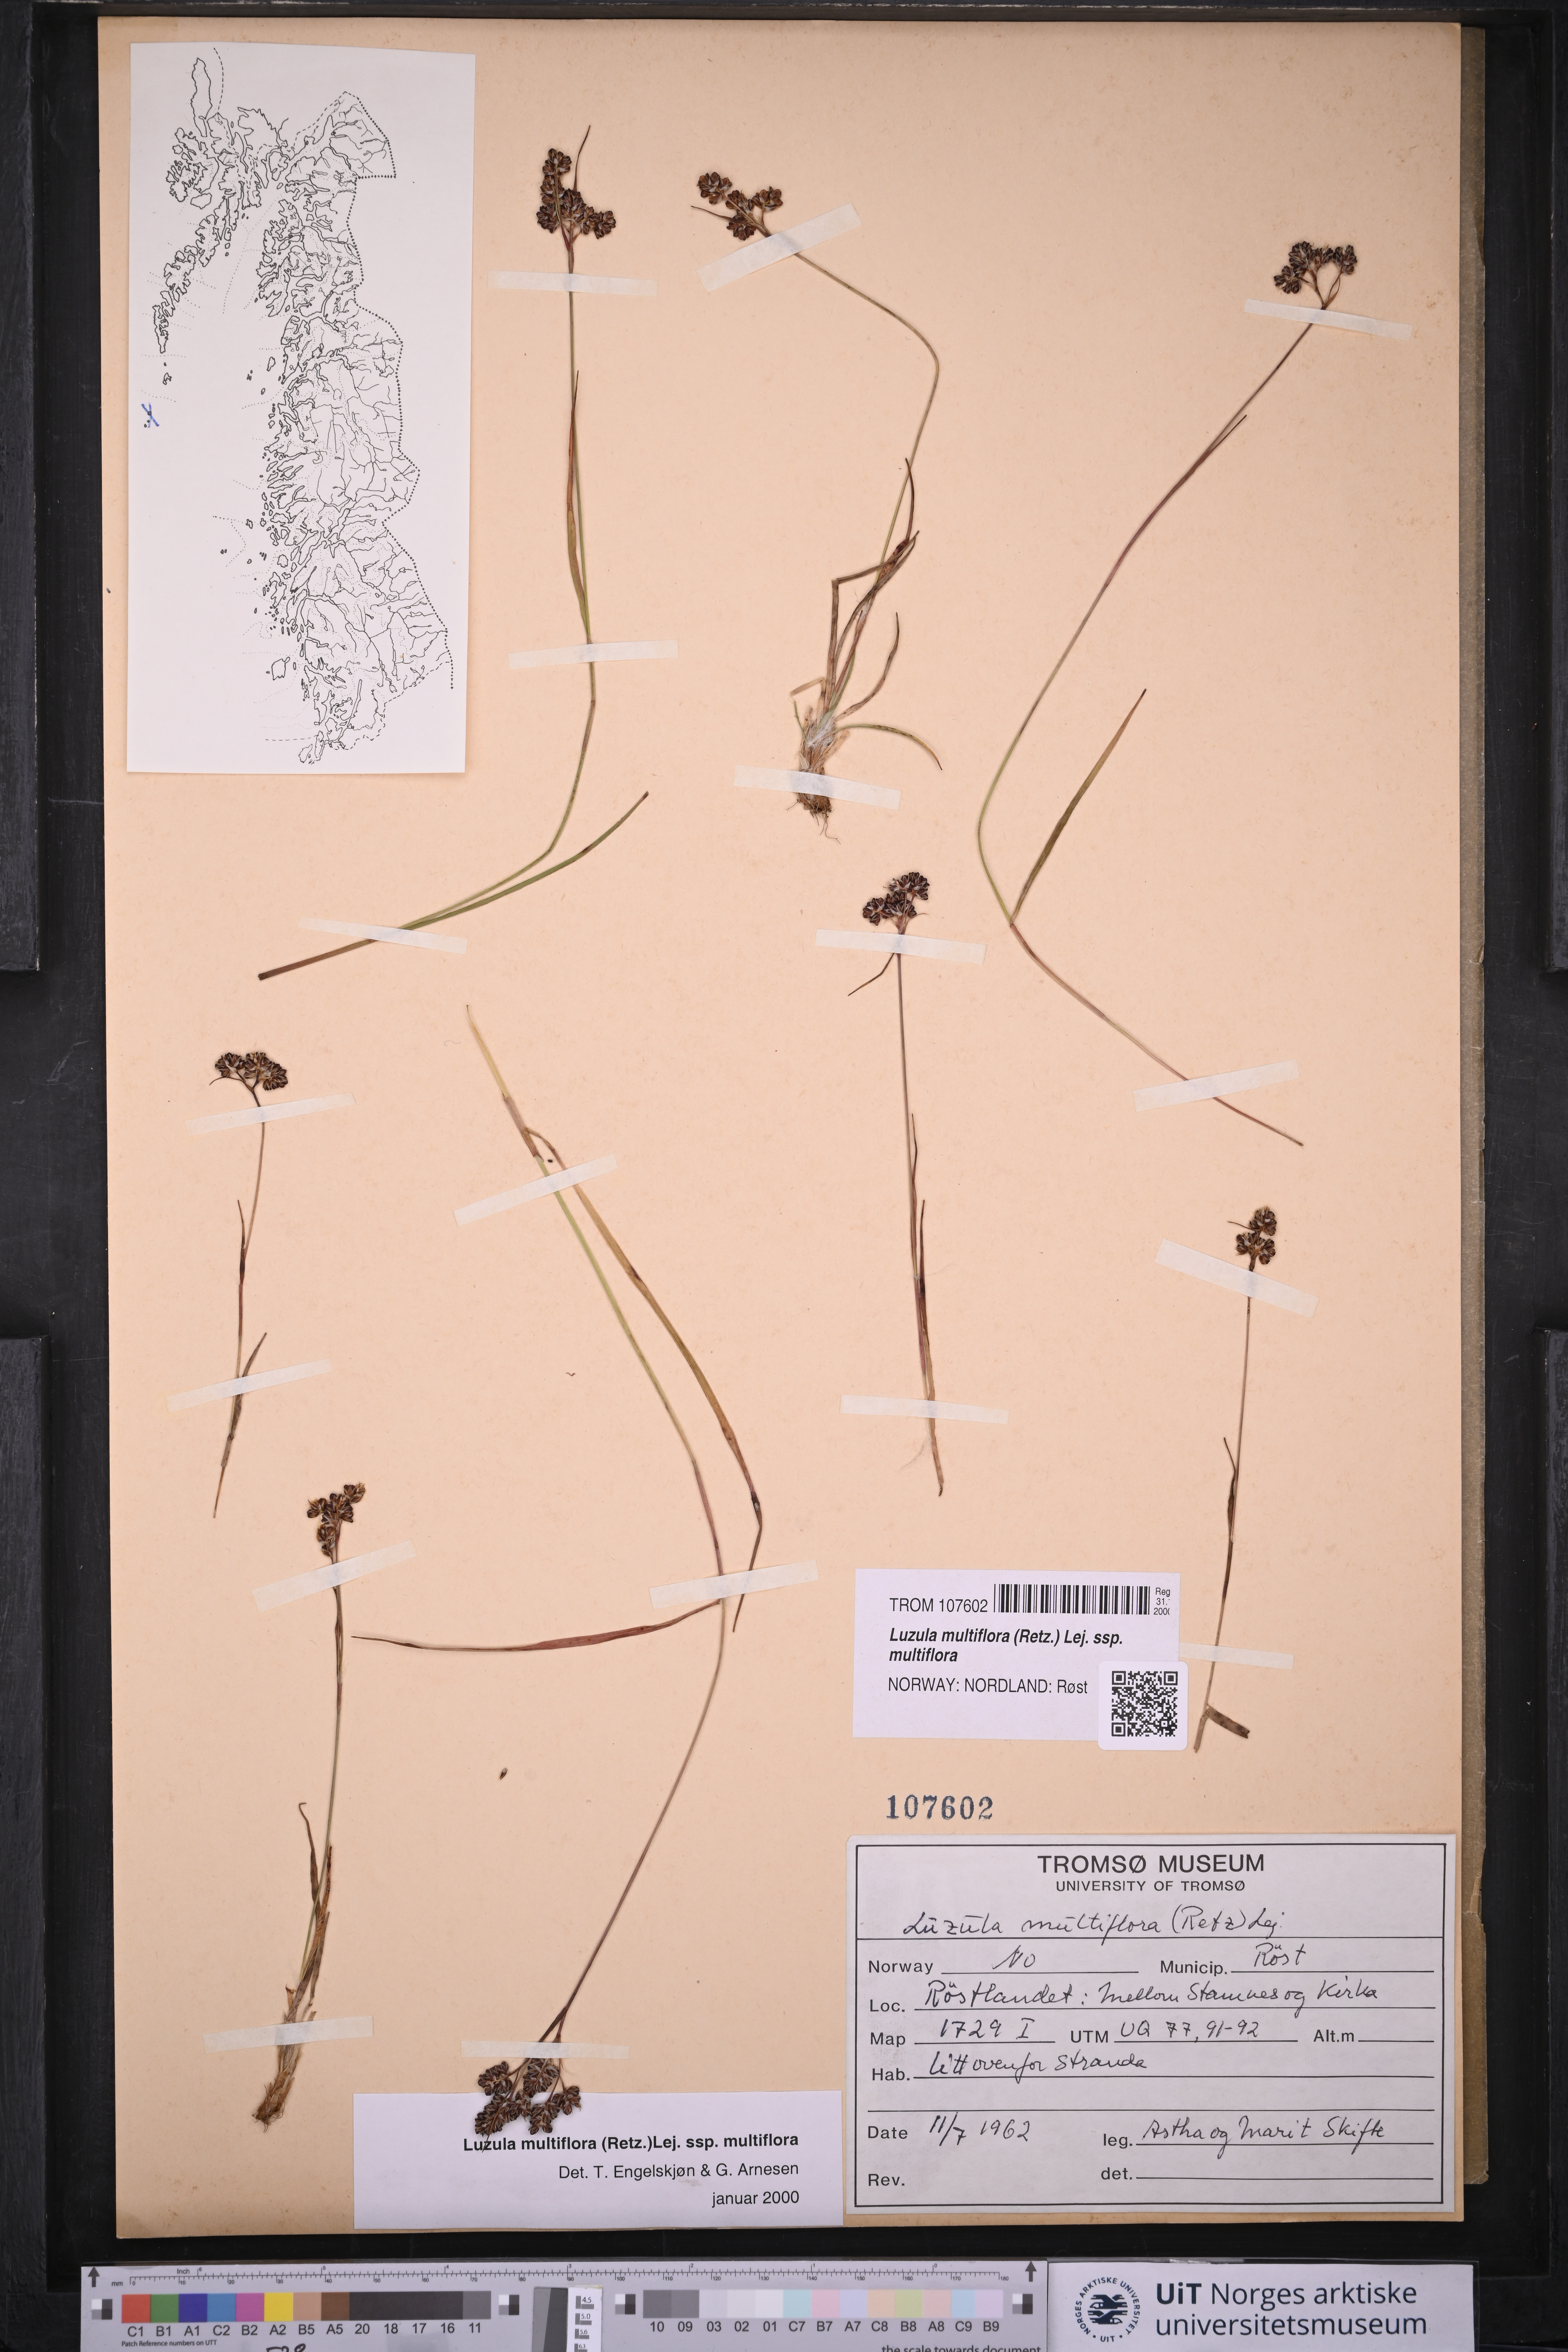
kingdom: Plantae
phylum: Tracheophyta
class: Liliopsida
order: Poales
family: Juncaceae
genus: Luzula
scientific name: Luzula multiflora
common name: Heath wood-rush
